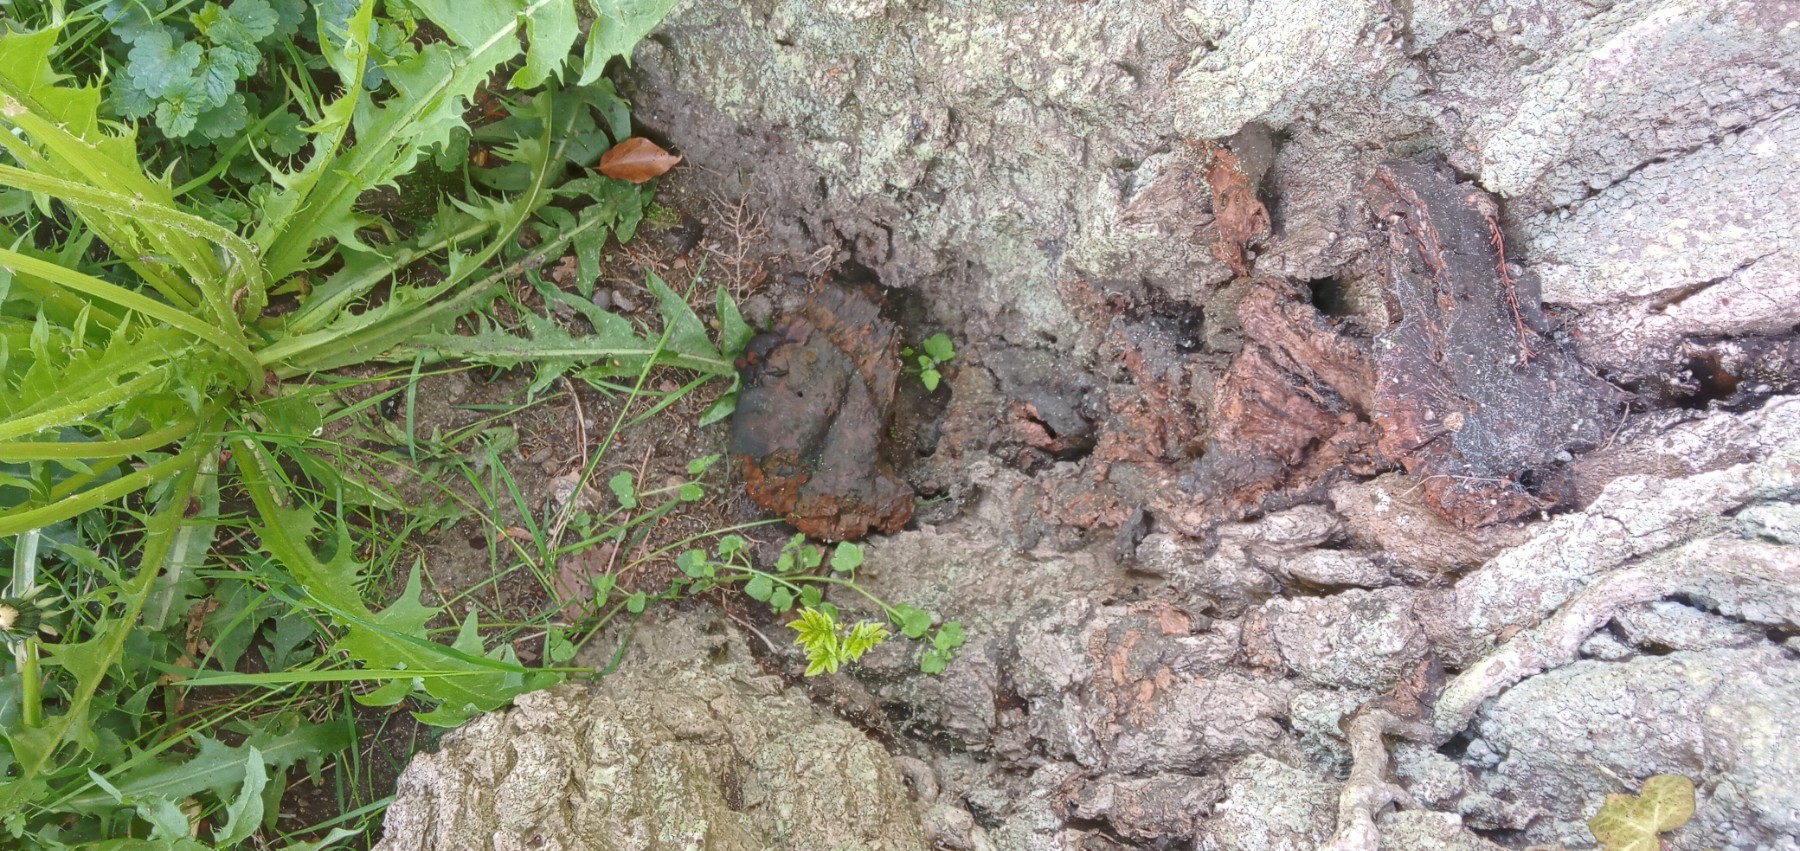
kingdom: Fungi
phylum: Basidiomycota
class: Agaricomycetes
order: Hymenochaetales
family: Hymenochaetaceae
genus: Pseudoinonotus
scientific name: Pseudoinonotus dryadeus
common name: ege-spejlporesvamp
